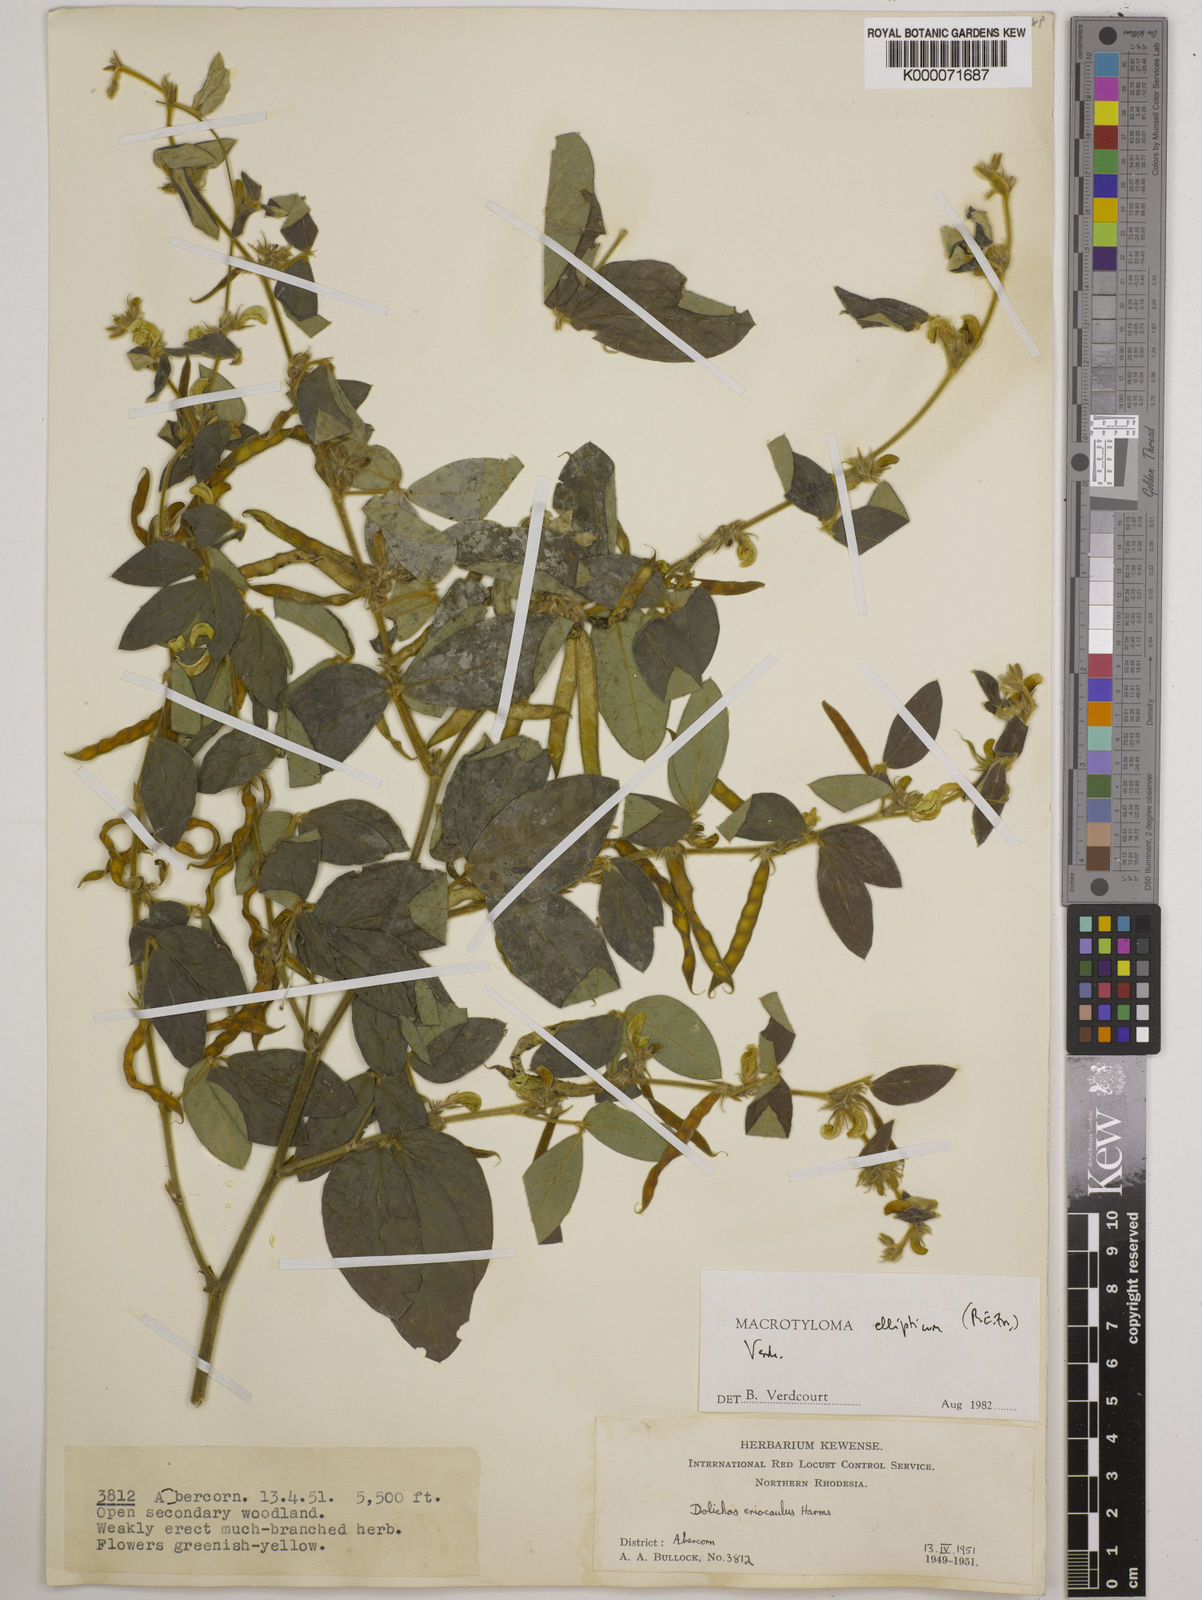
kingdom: Plantae
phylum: Tracheophyta
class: Magnoliopsida
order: Fabales
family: Fabaceae
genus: Macrotyloma
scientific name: Macrotyloma ellipticum
